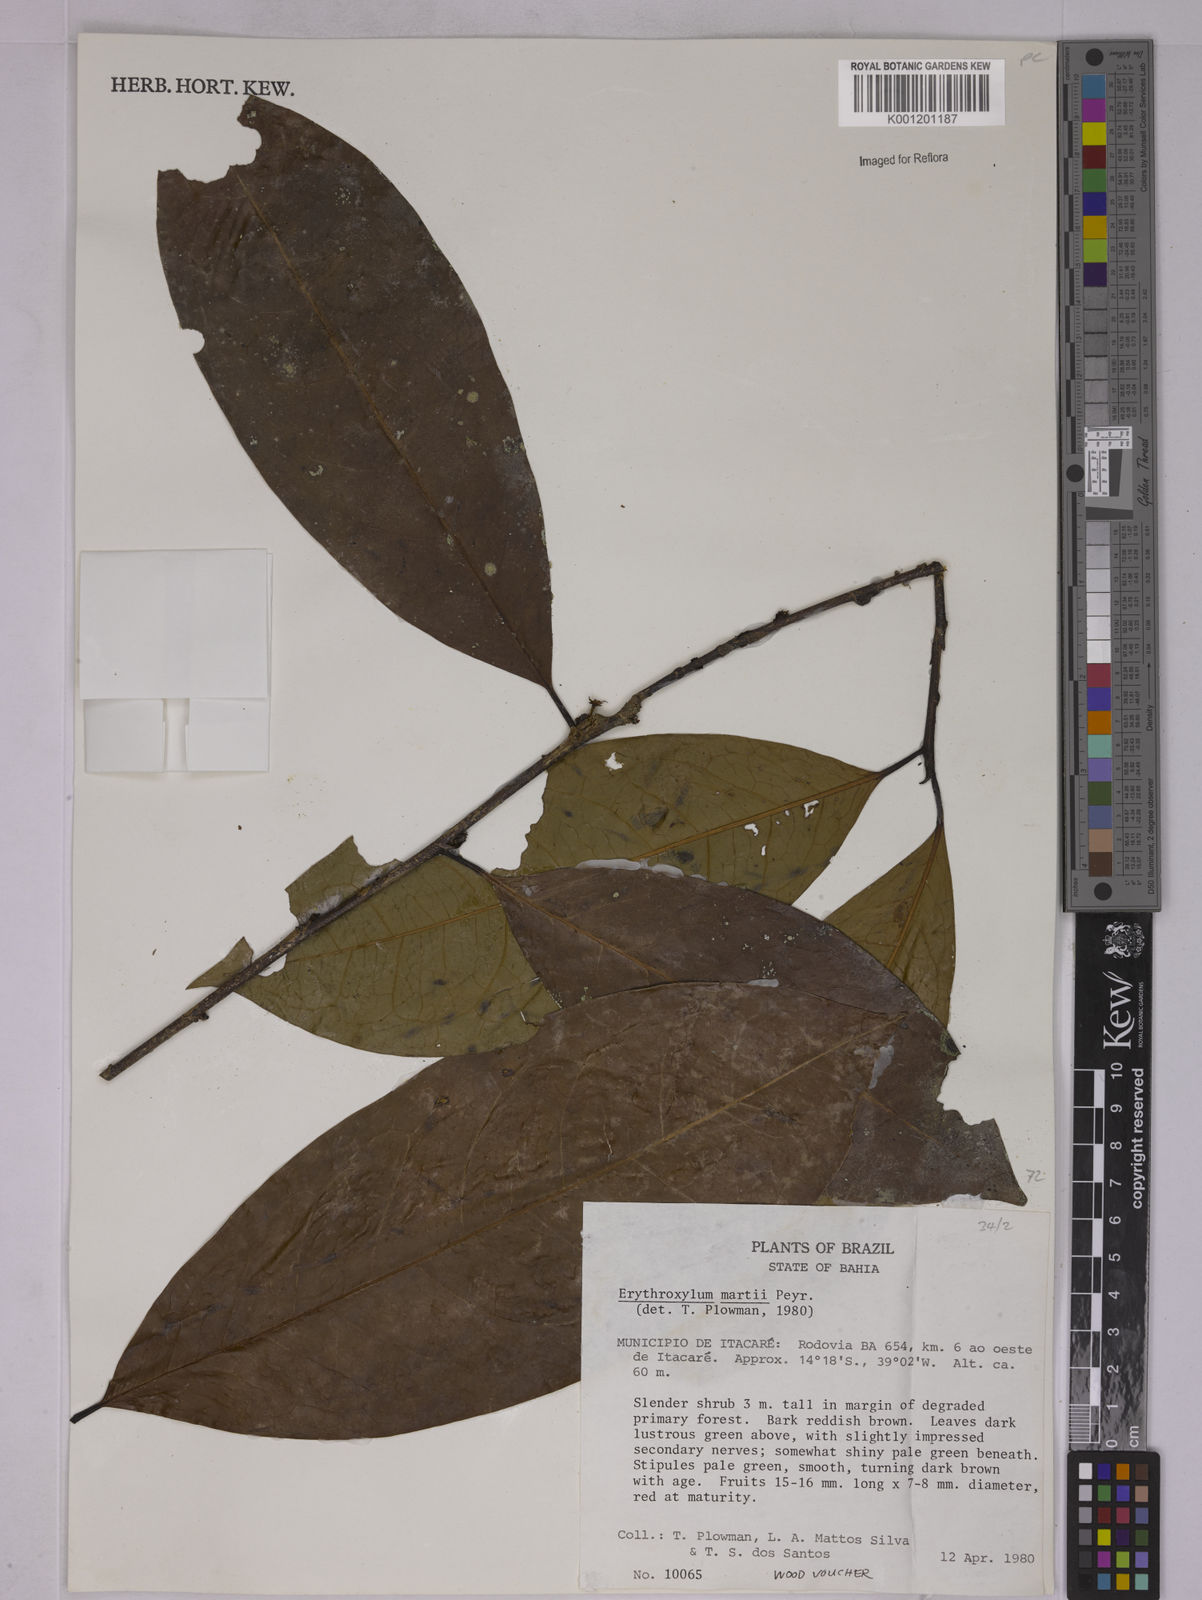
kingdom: Plantae
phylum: Tracheophyta
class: Magnoliopsida
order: Malpighiales
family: Erythroxylaceae
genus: Erythroxylum
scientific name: Erythroxylum martii
